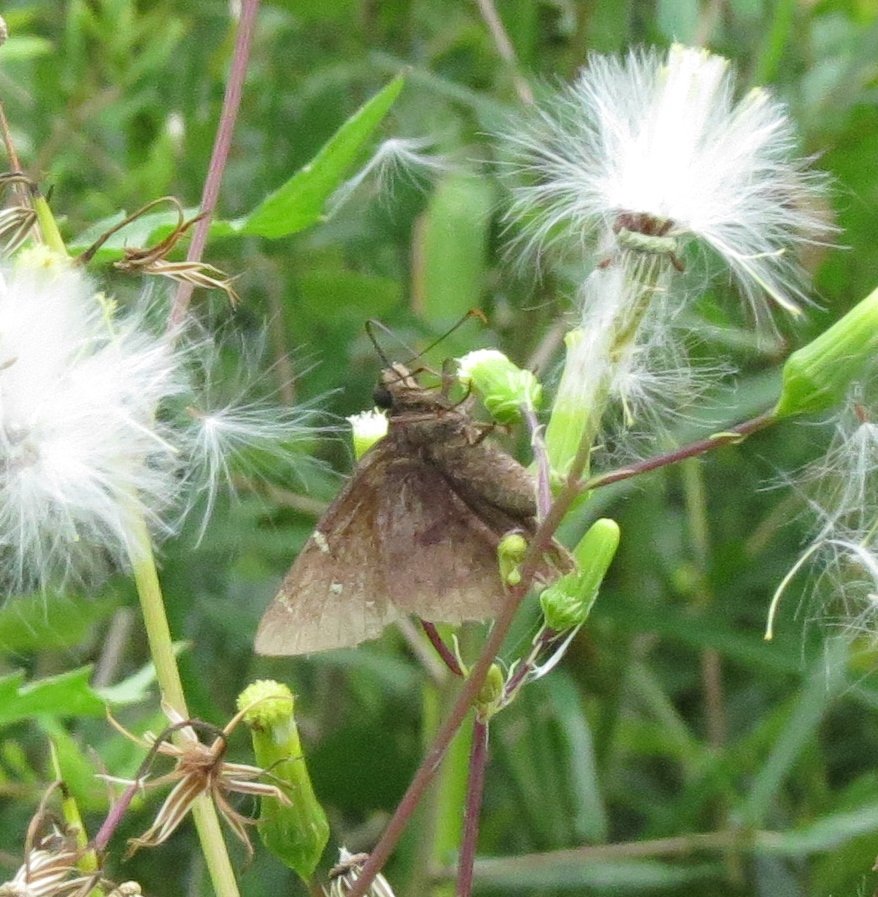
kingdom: Animalia
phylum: Arthropoda
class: Insecta
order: Lepidoptera
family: Hesperiidae
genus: Autochton
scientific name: Autochton
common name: Northern Cloudywing
